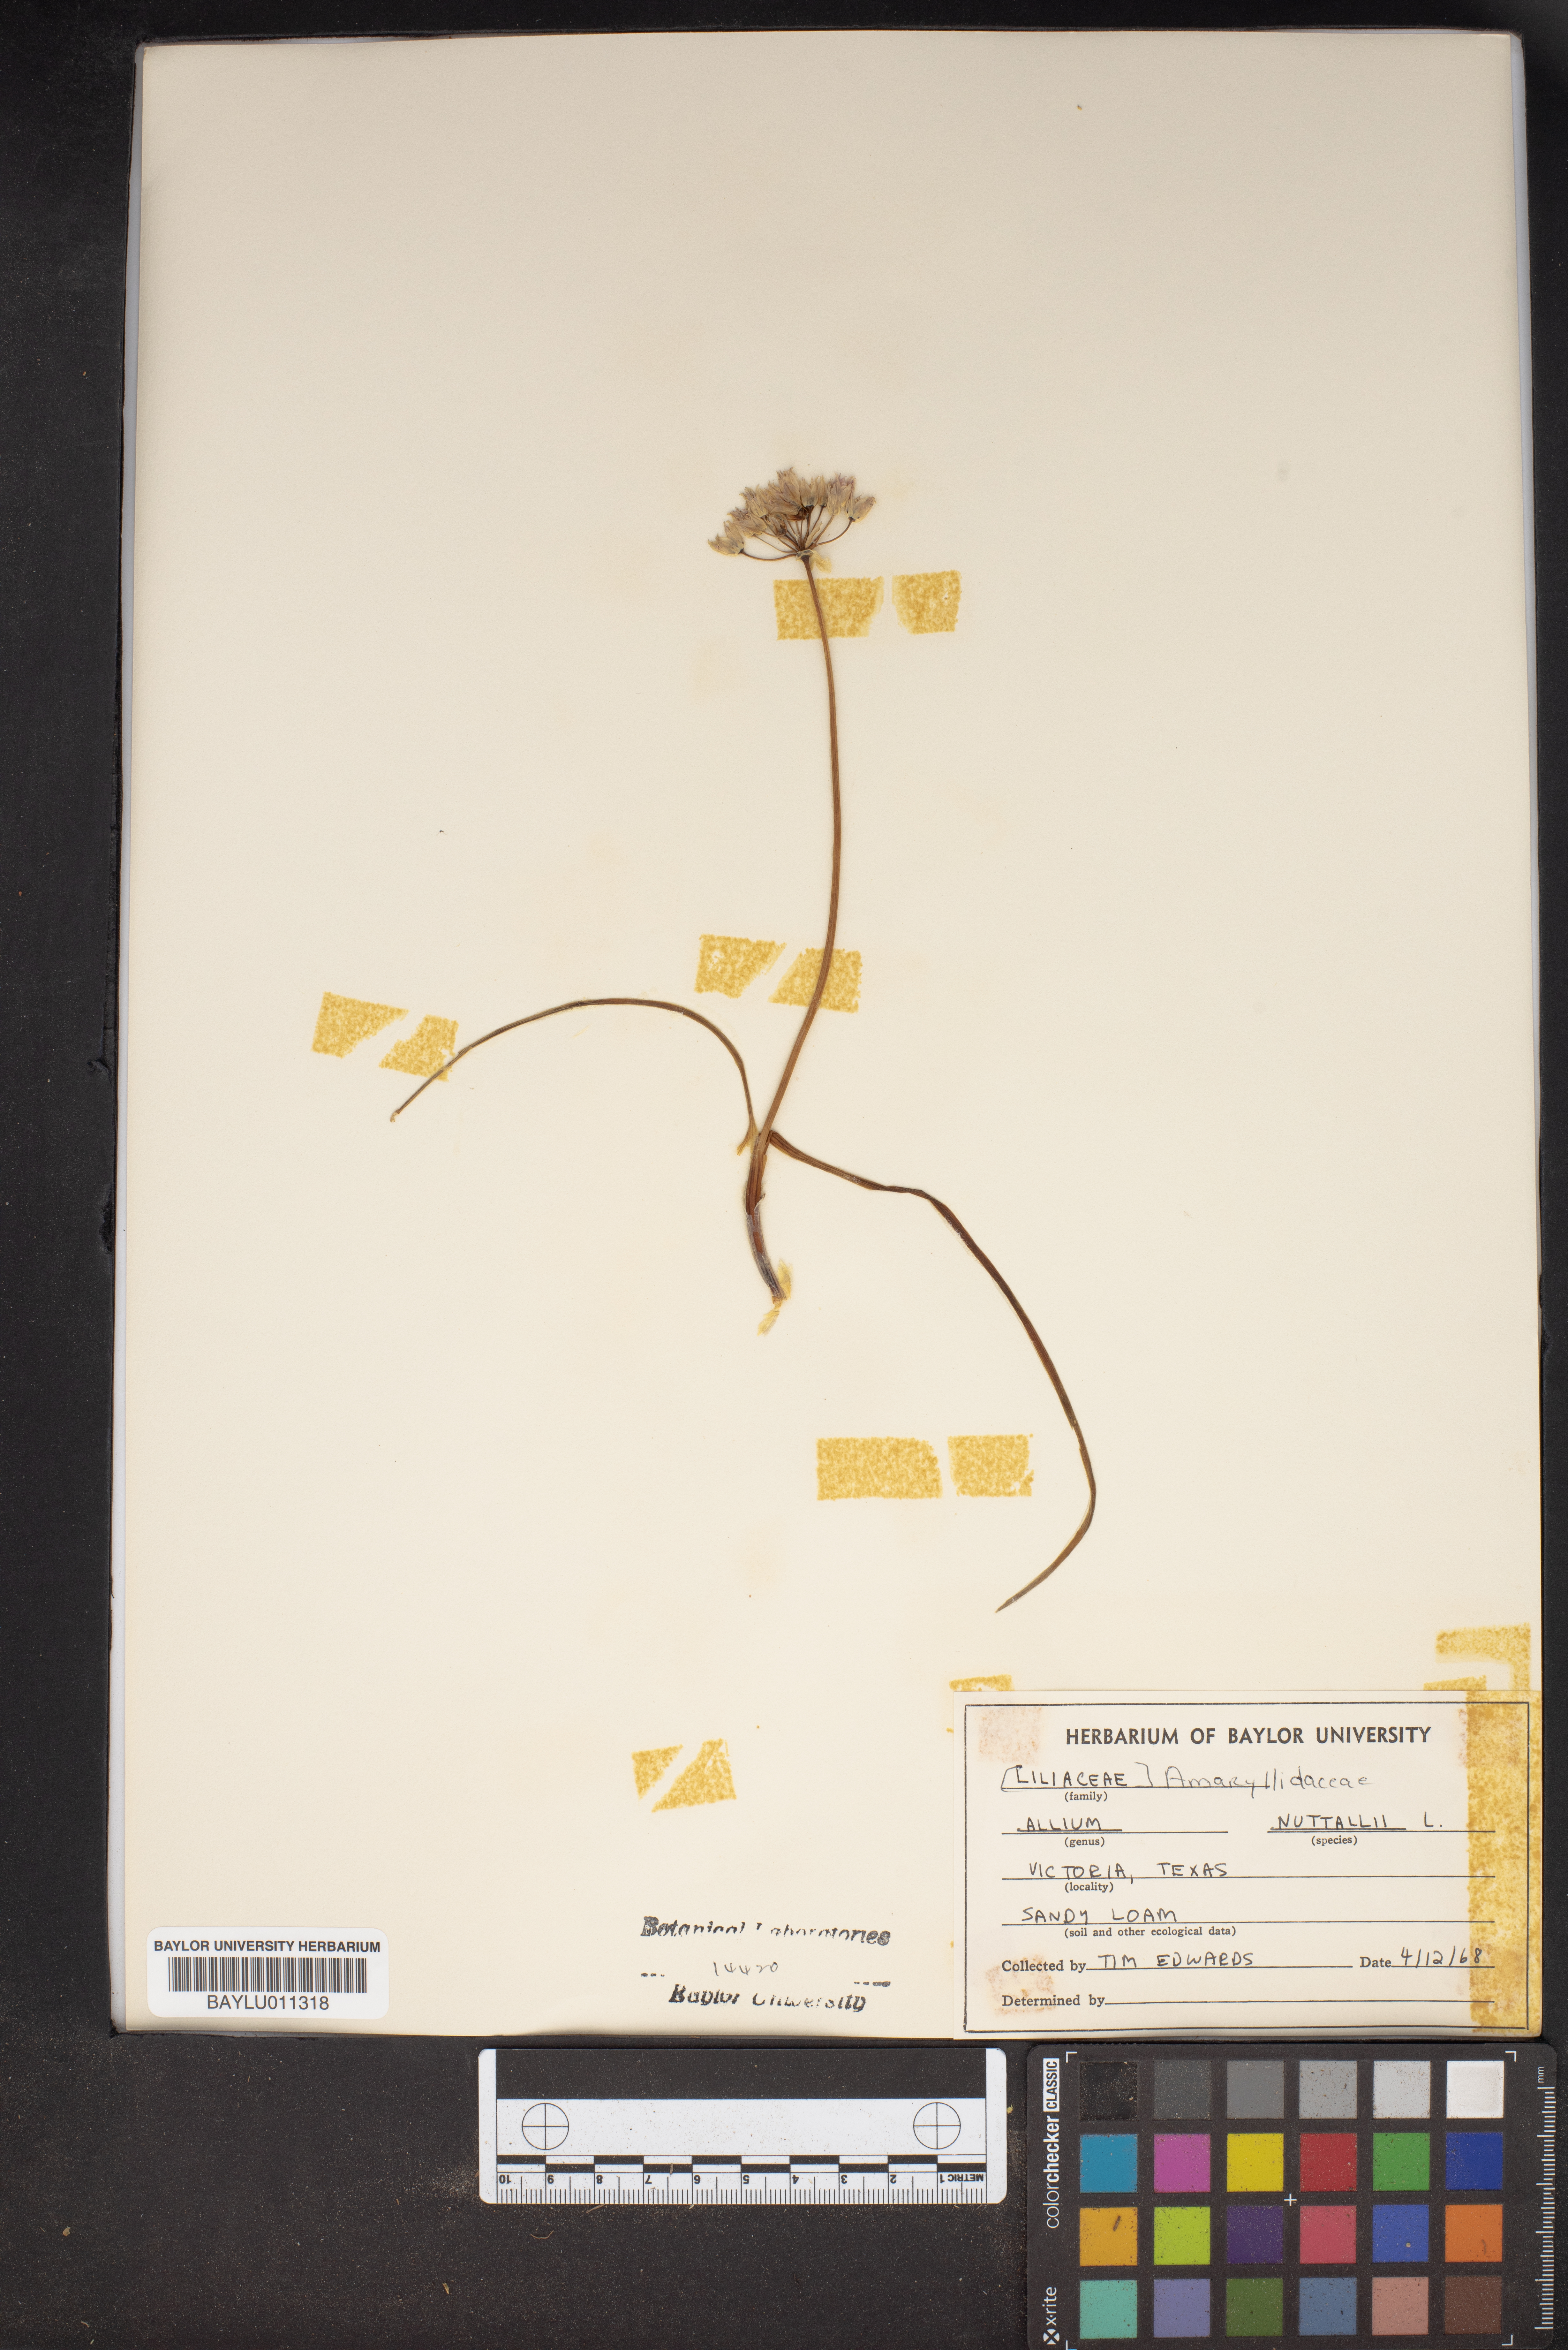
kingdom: Plantae
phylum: Tracheophyta
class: Liliopsida
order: Asparagales
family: Amaryllidaceae
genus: Allium
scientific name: Allium drummondii
